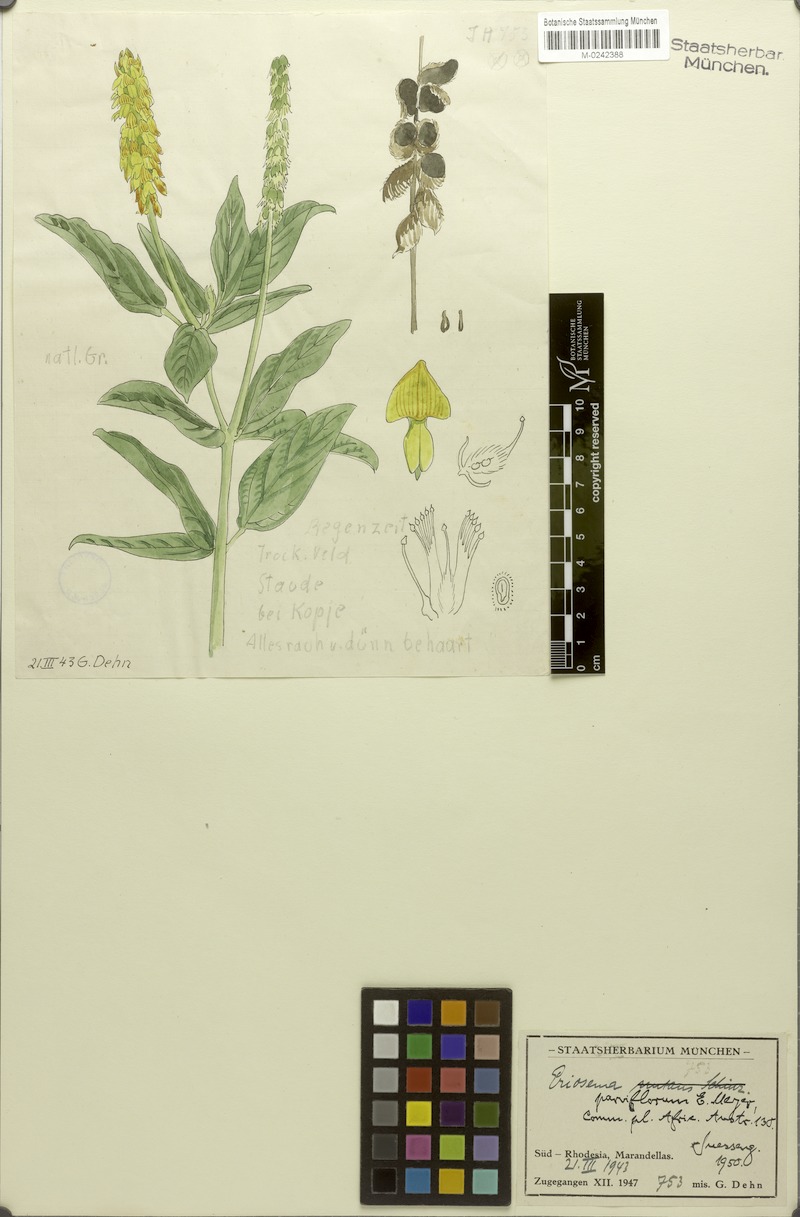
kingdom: Plantae
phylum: Tracheophyta
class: Magnoliopsida
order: Fabales
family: Fabaceae
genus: Eriosema
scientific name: Eriosema parviflorum
